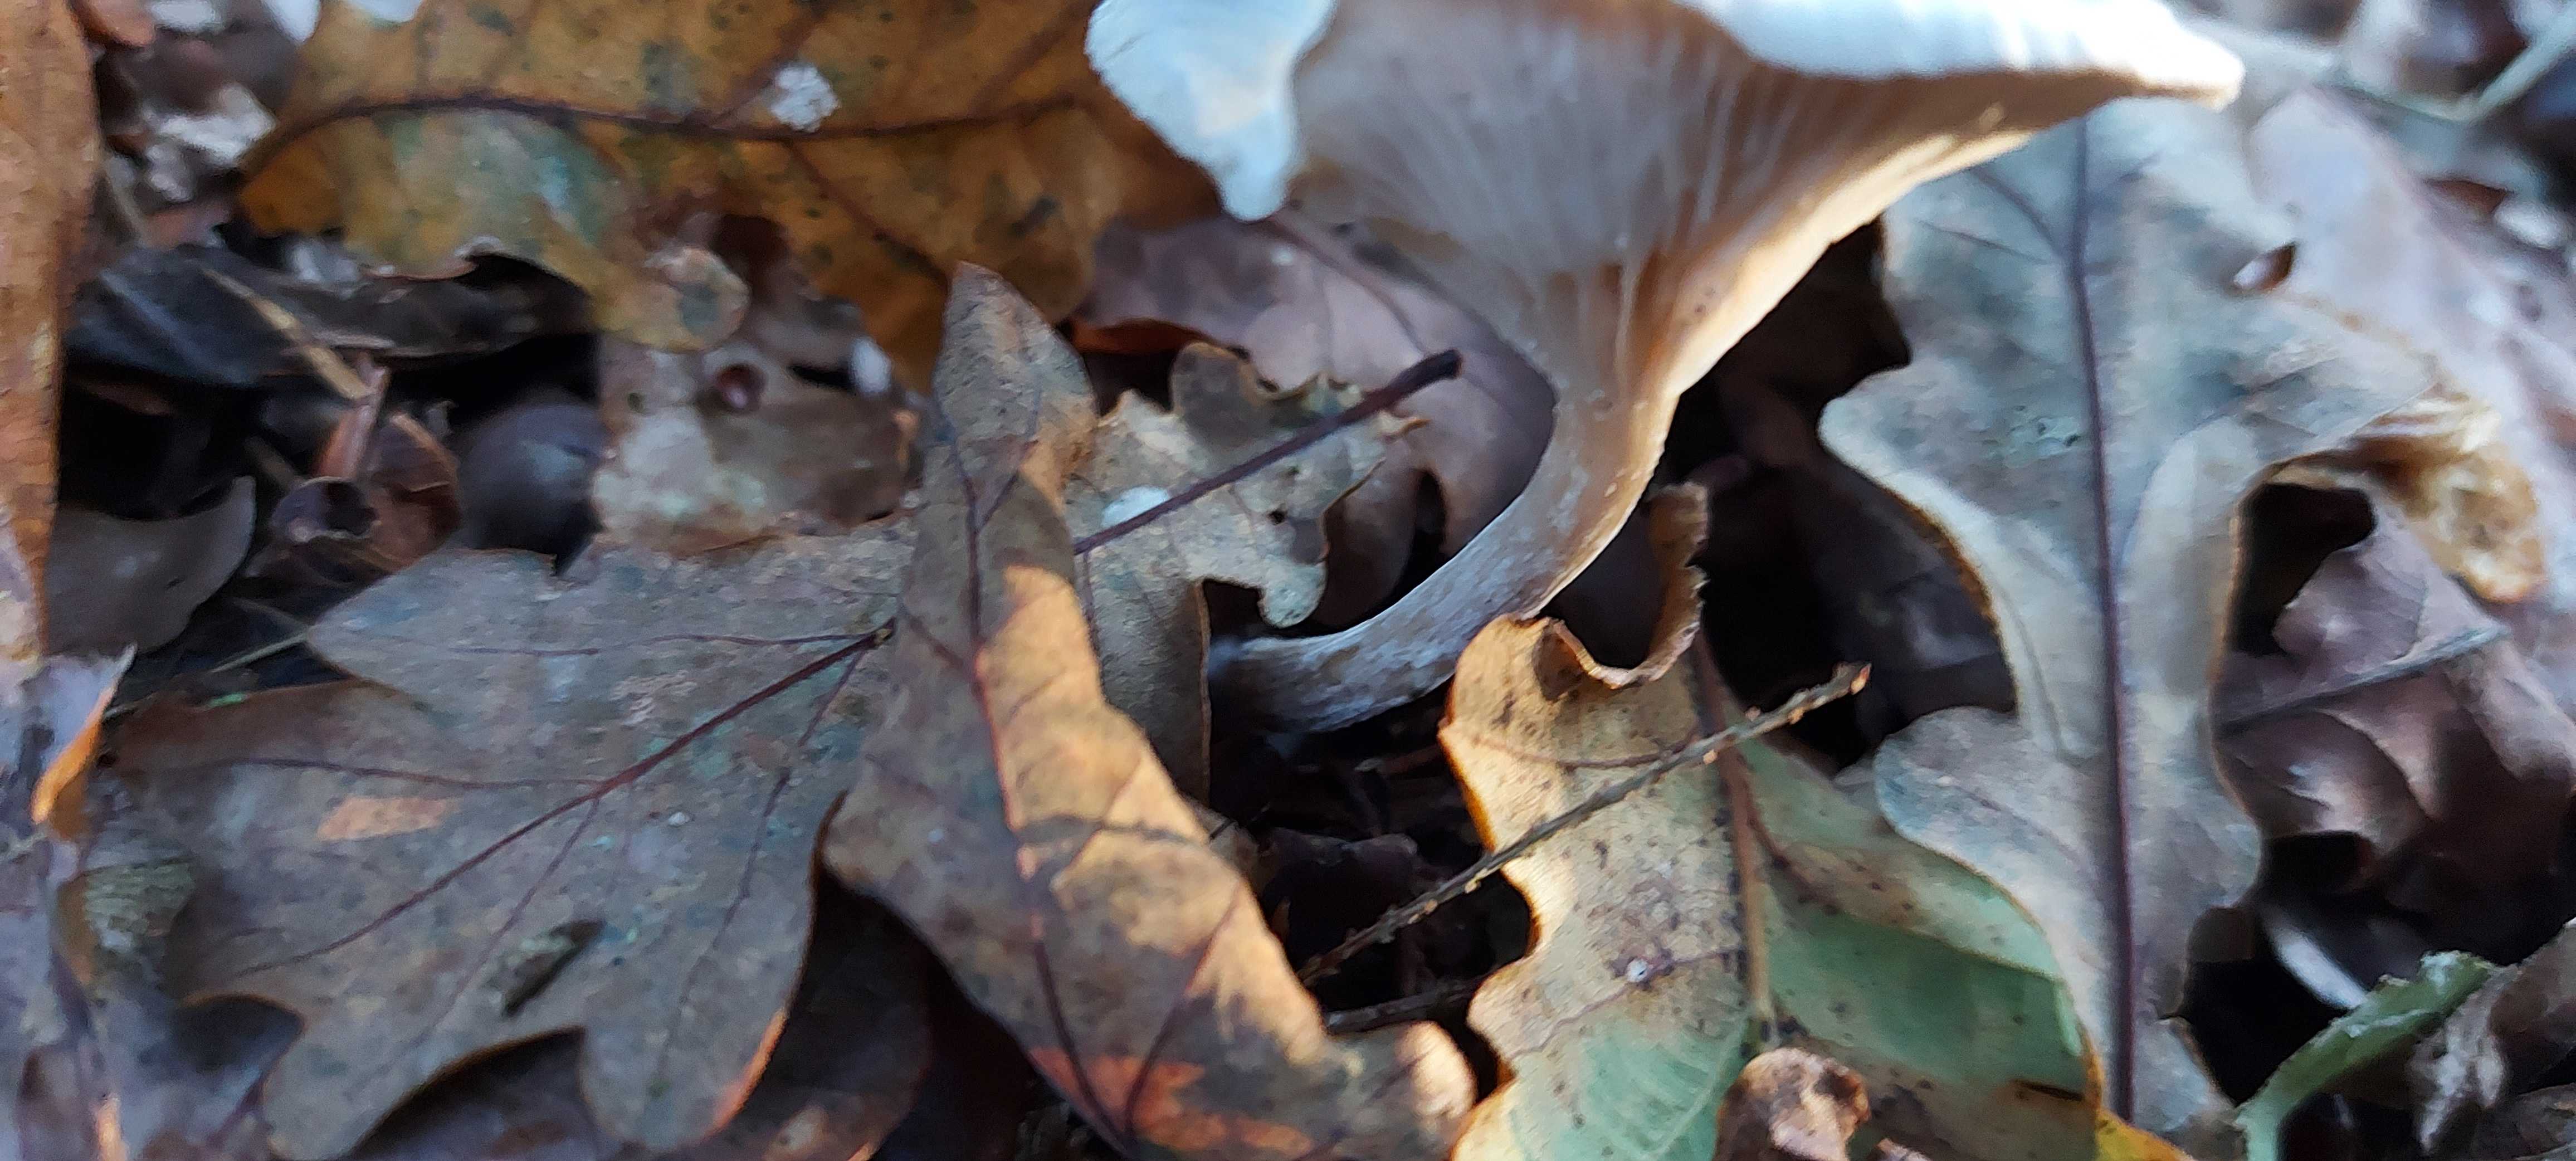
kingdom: Fungi
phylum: Basidiomycota
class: Agaricomycetes
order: Agaricales
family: Tricholomataceae
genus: Clitocybe
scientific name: Clitocybe
